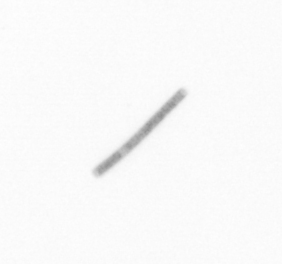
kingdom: Chromista
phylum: Ochrophyta
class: Bacillariophyceae
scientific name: Bacillariophyceae
